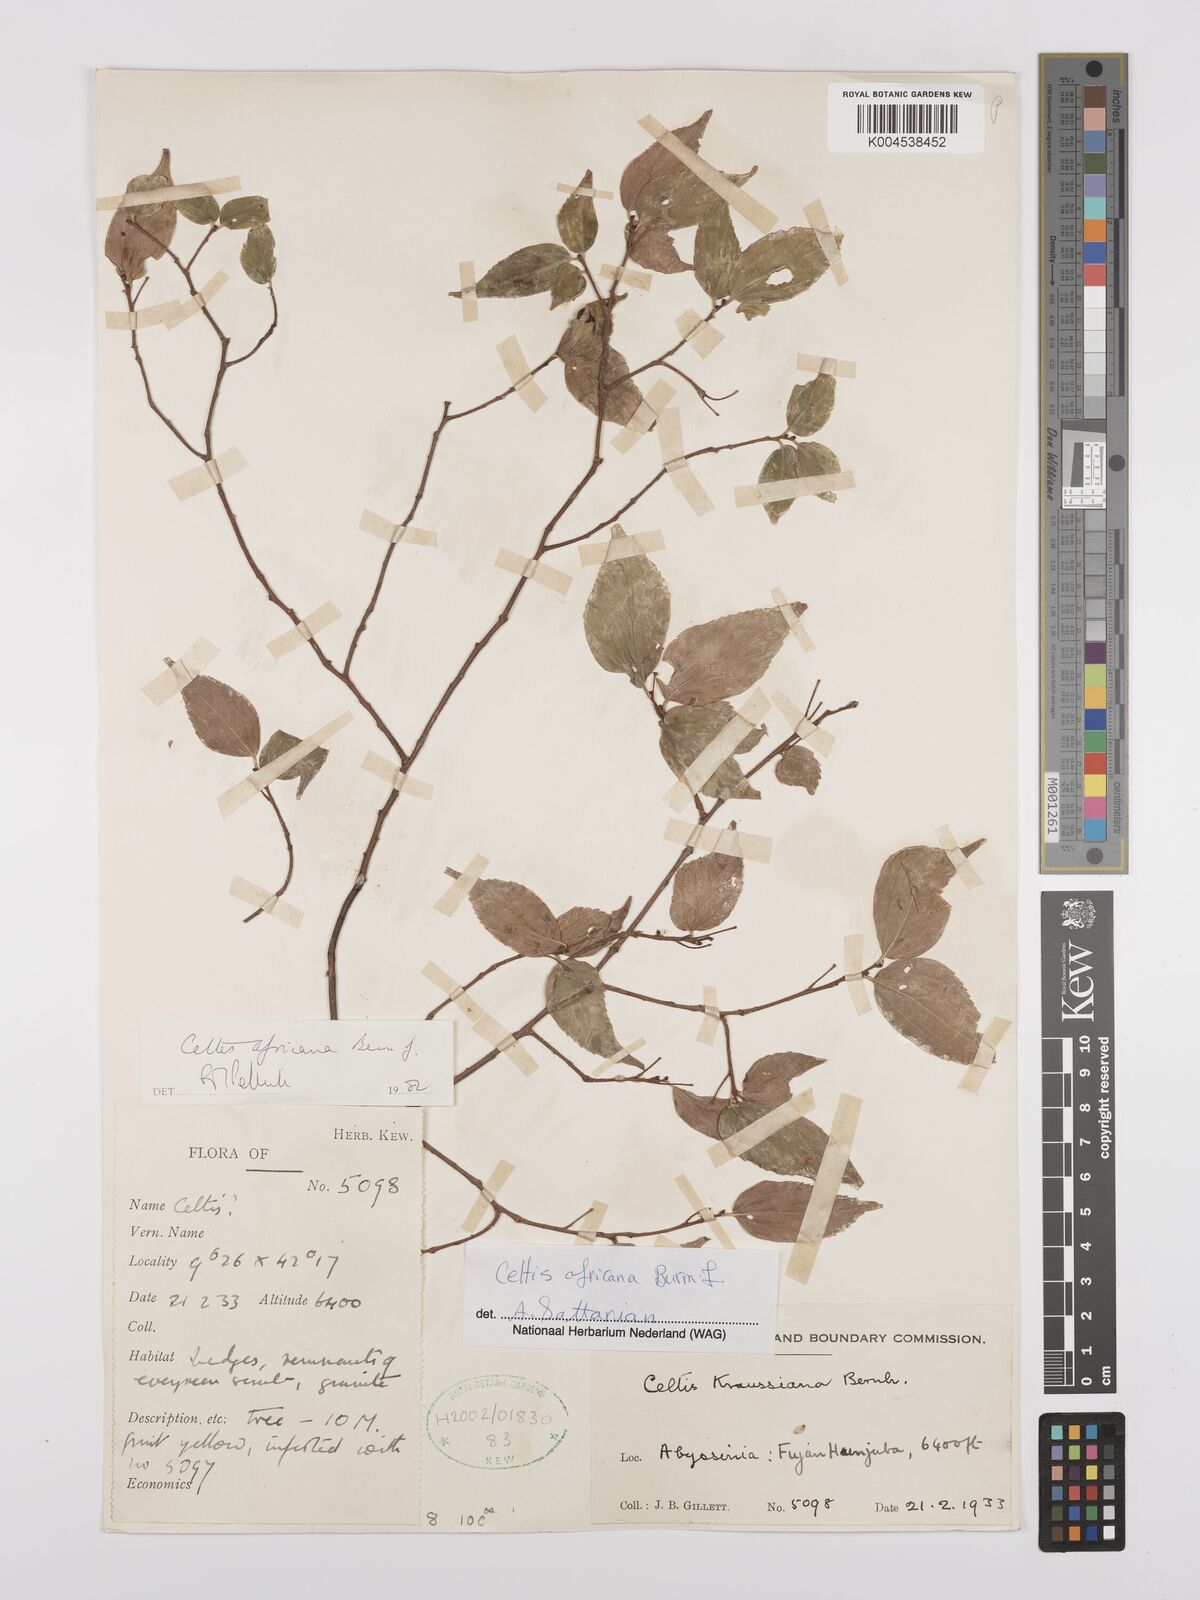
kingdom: Plantae
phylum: Tracheophyta
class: Magnoliopsida
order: Rosales
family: Cannabaceae
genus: Celtis
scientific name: Celtis africana
